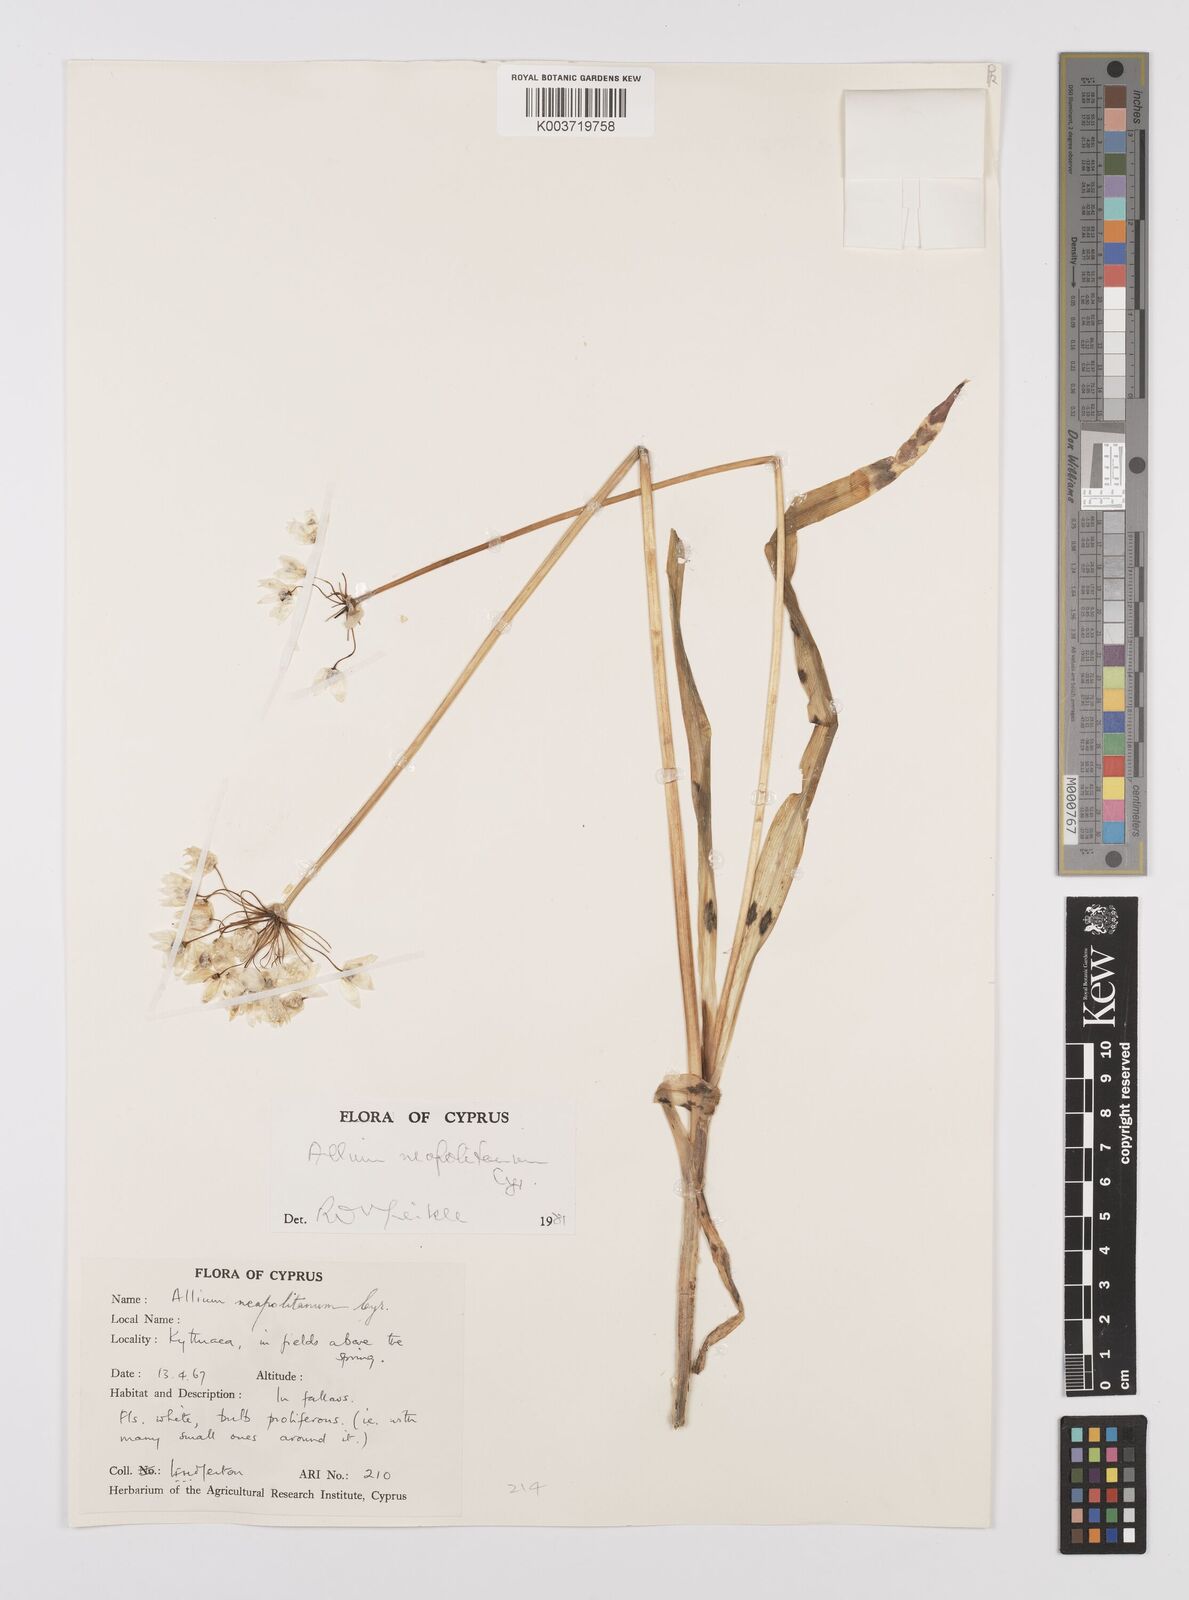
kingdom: Plantae
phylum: Tracheophyta
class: Liliopsida
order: Asparagales
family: Amaryllidaceae
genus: Allium
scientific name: Allium neapolitanum
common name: Neapolitan garlic
